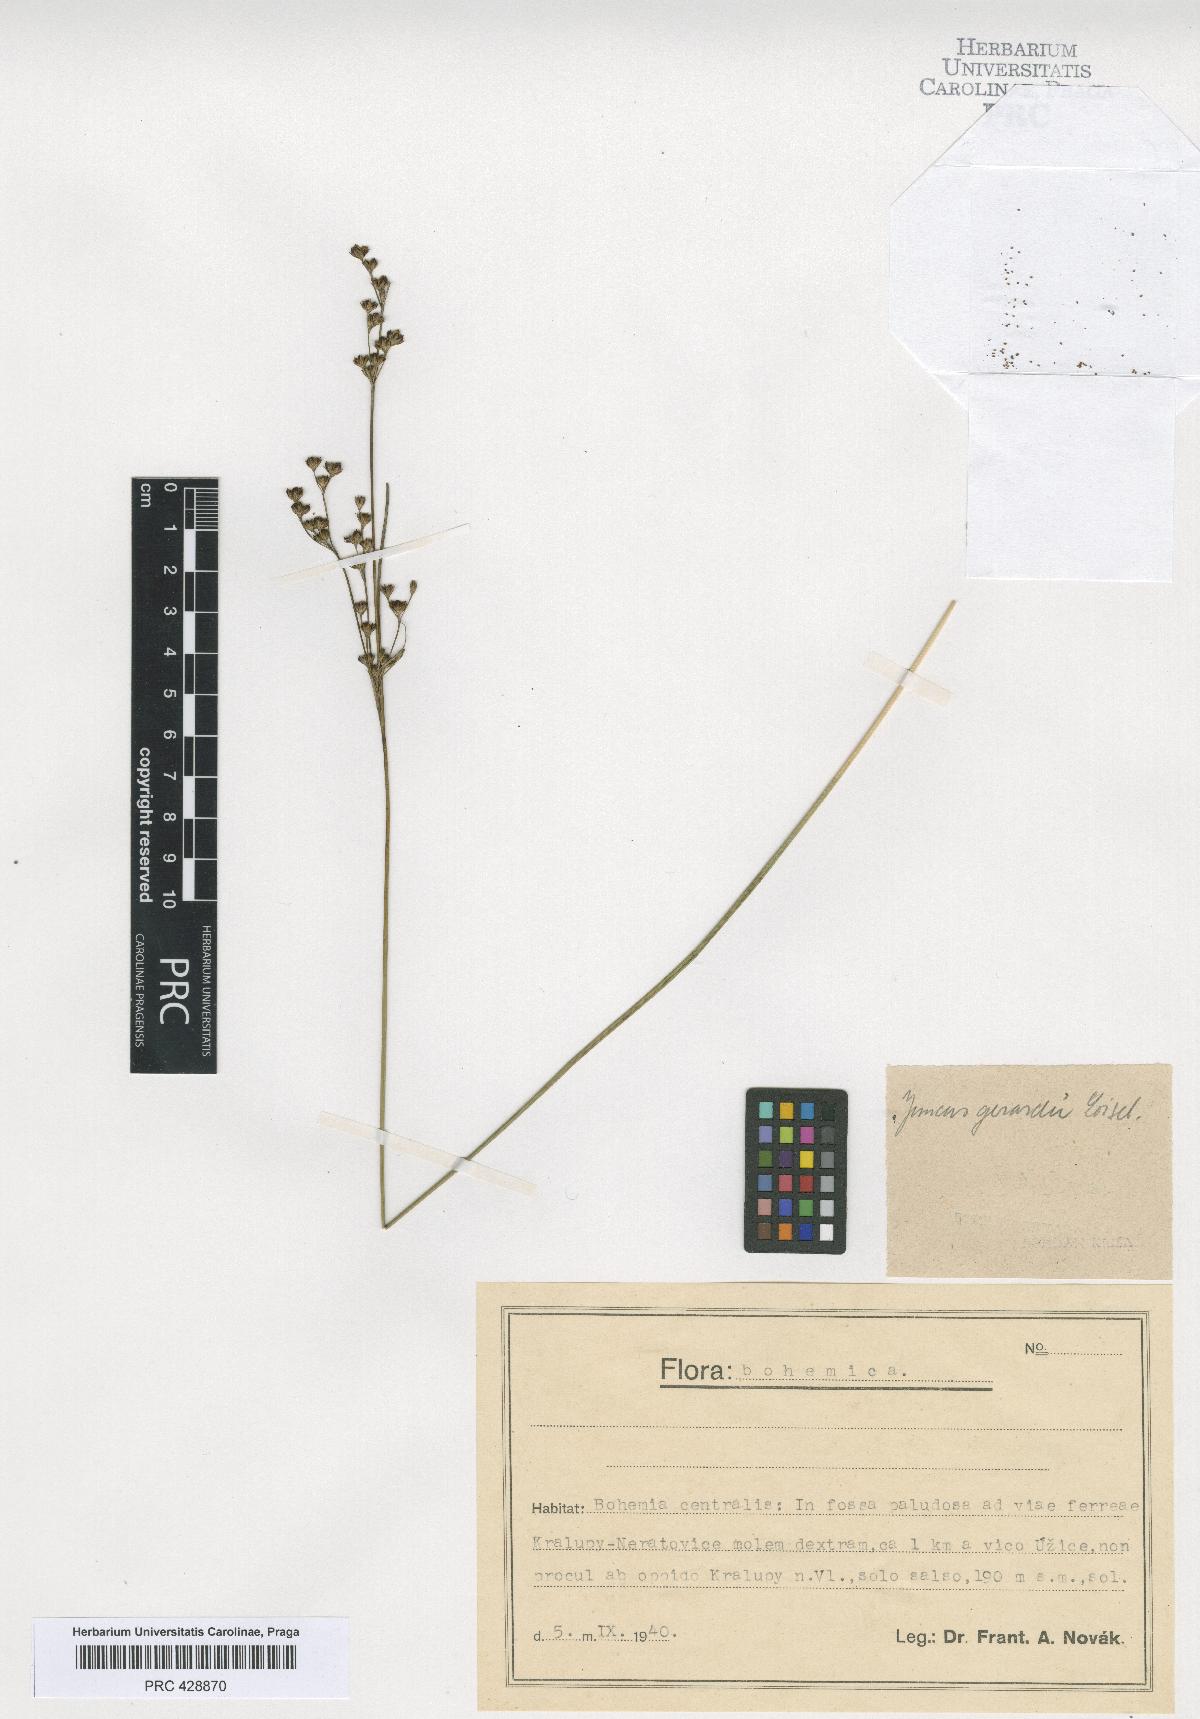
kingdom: Plantae
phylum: Tracheophyta
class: Liliopsida
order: Poales
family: Juncaceae
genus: Juncus
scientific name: Juncus gerardi
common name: Saltmarsh rush
